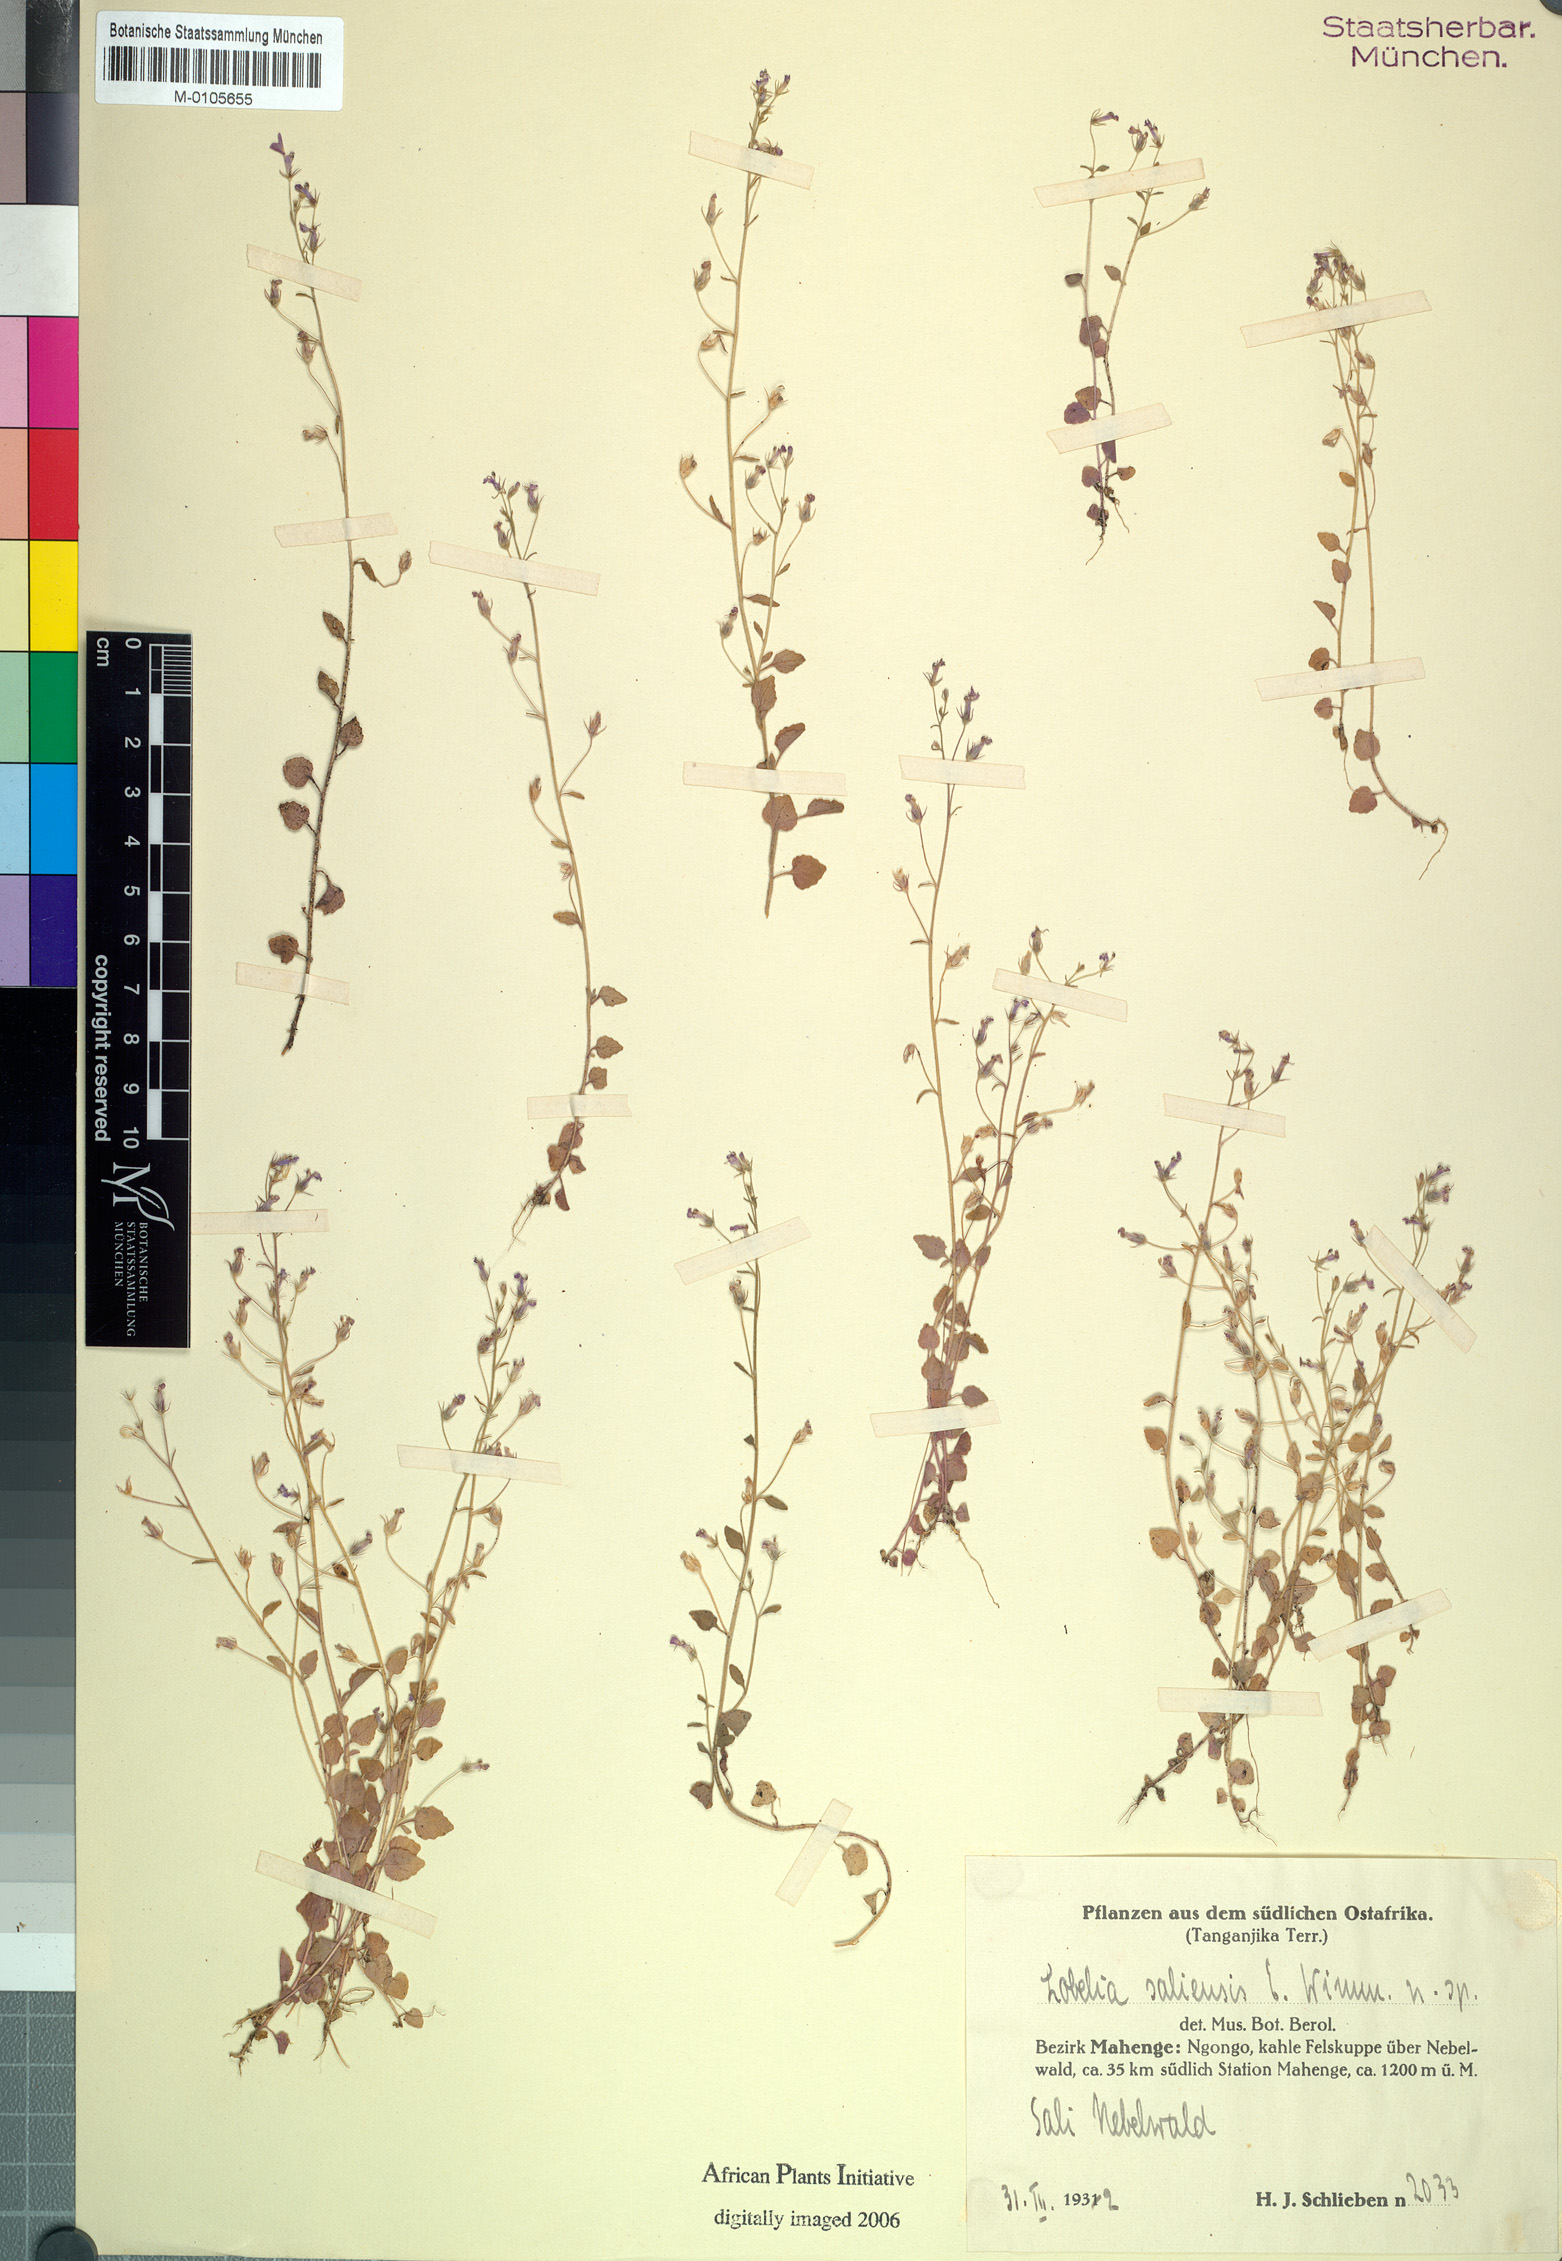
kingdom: Plantae
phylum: Tracheophyta
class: Magnoliopsida
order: Asterales
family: Campanulaceae
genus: Lobelia
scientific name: Lobelia trullifolia
